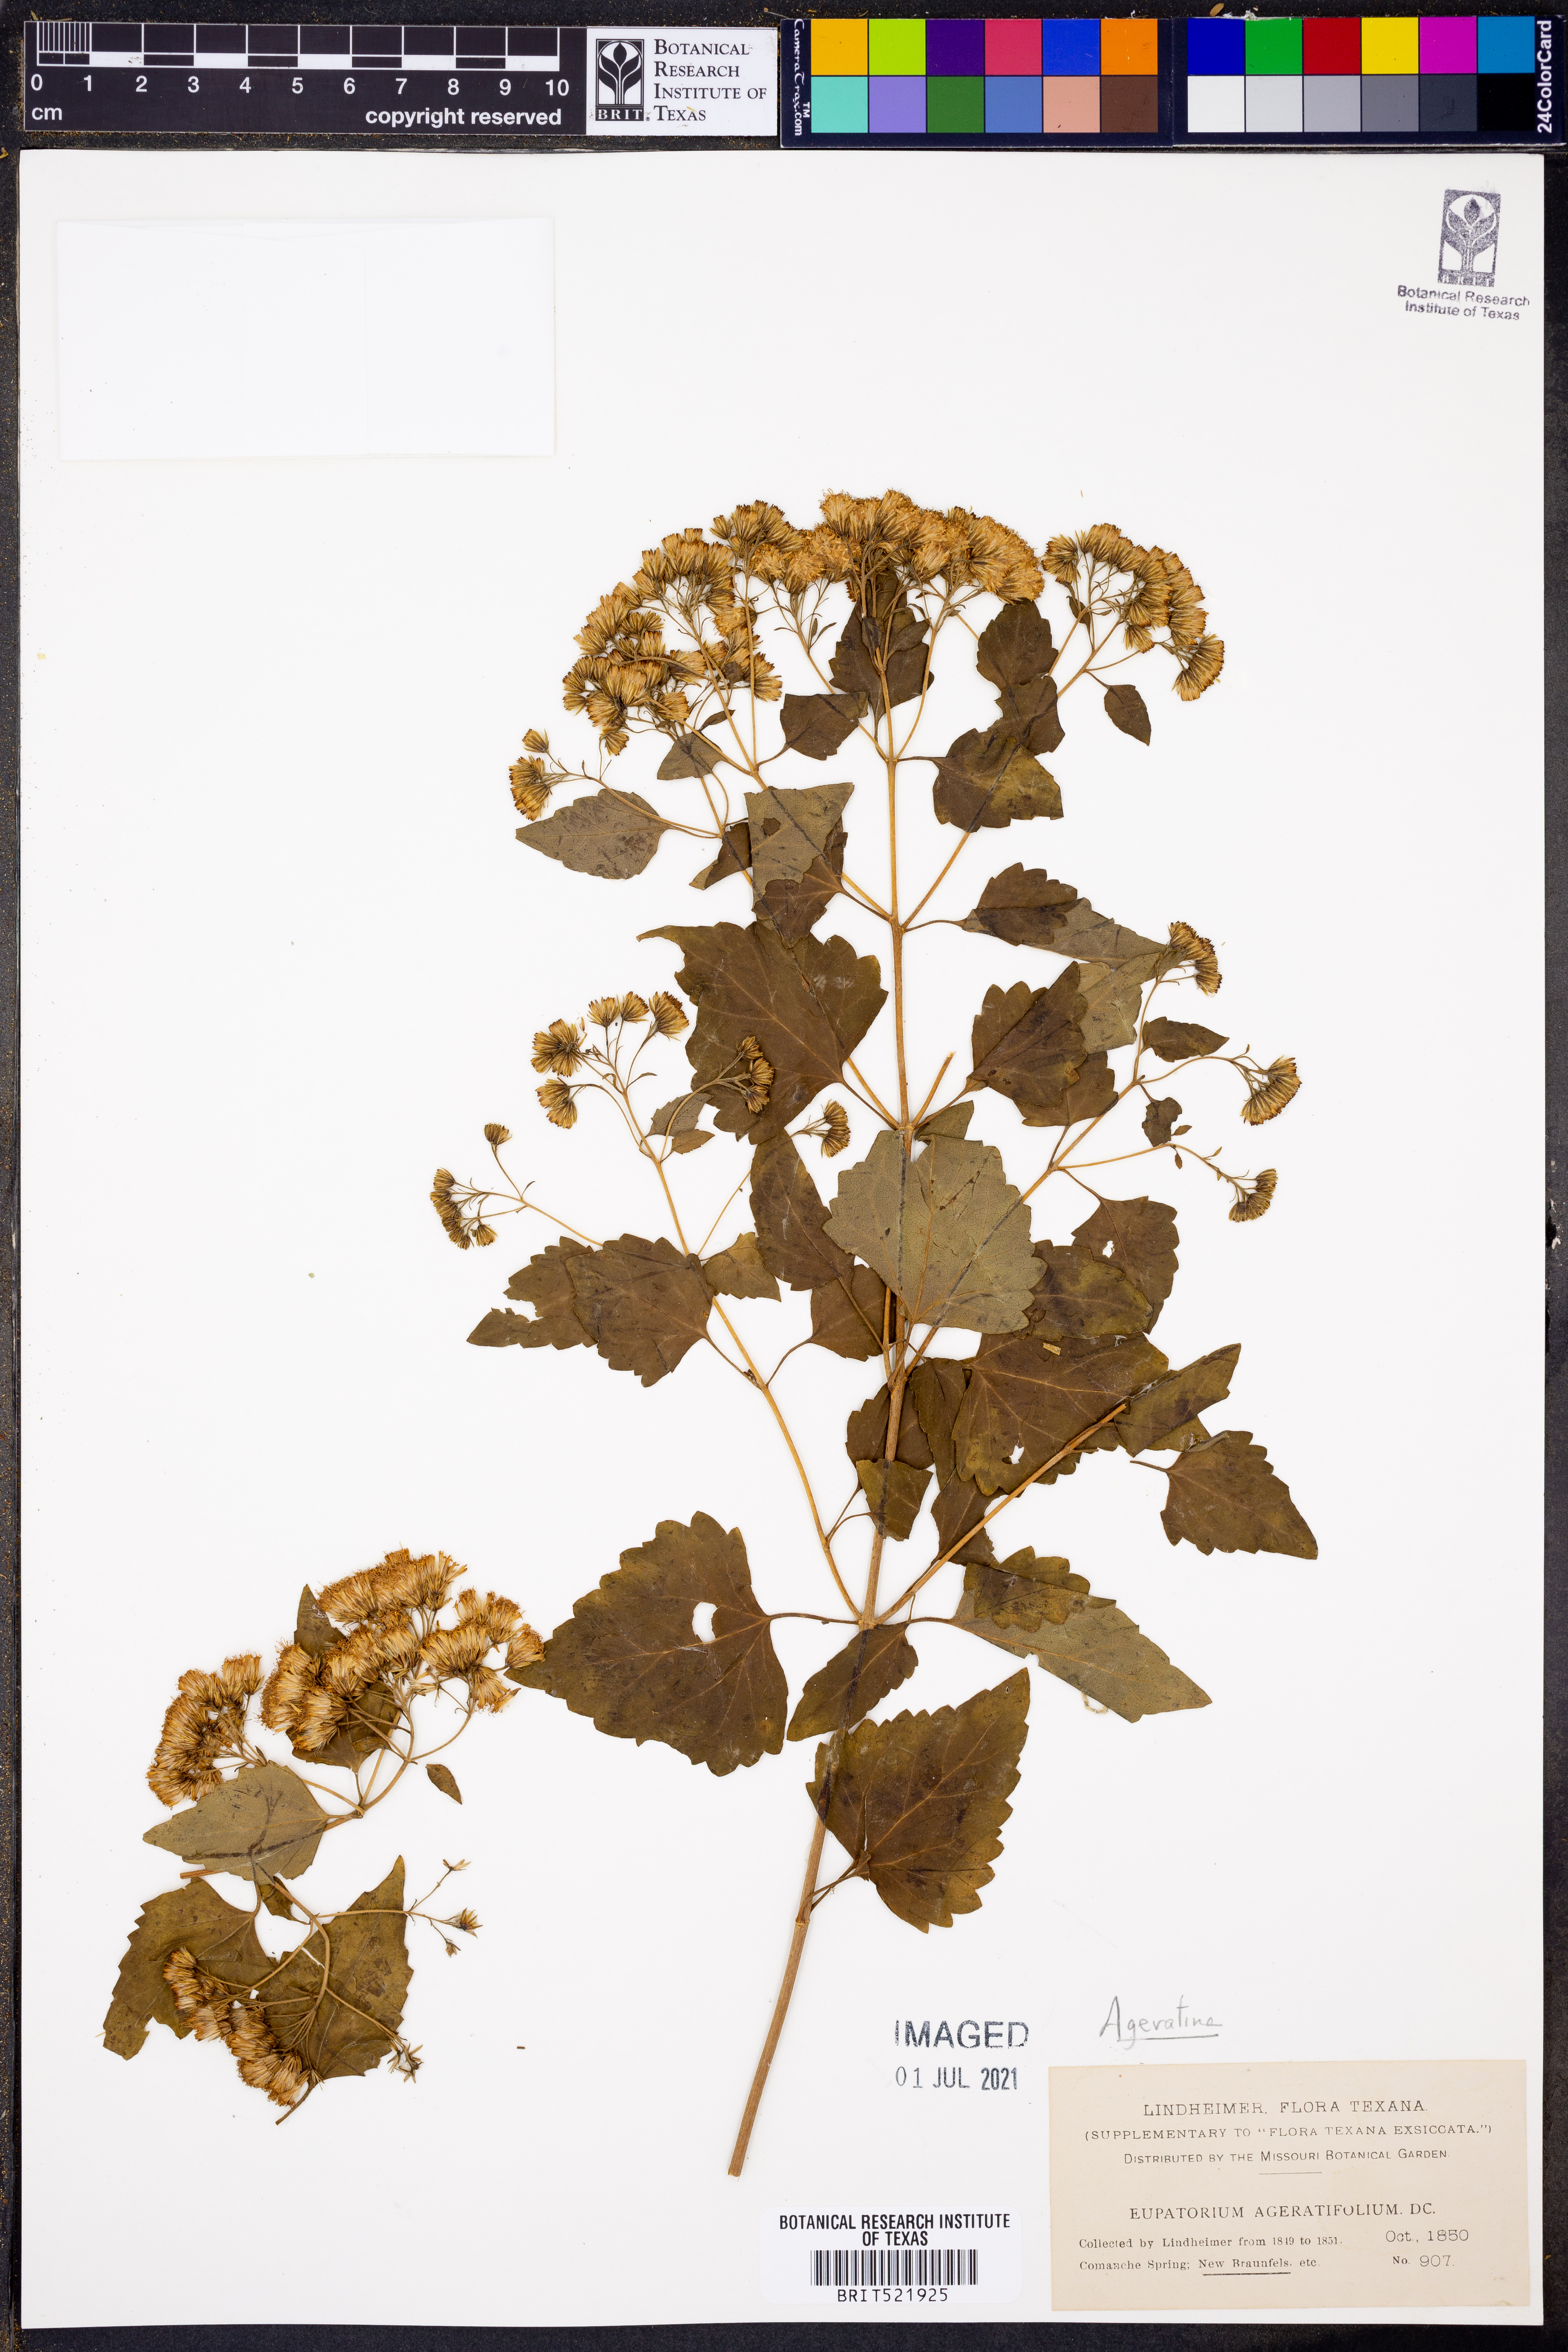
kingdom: Plantae
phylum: Tracheophyta
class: Magnoliopsida
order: Asterales
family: Asteraceae
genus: Ageratina
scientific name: Ageratina havanensis
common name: Havana snakeroot
